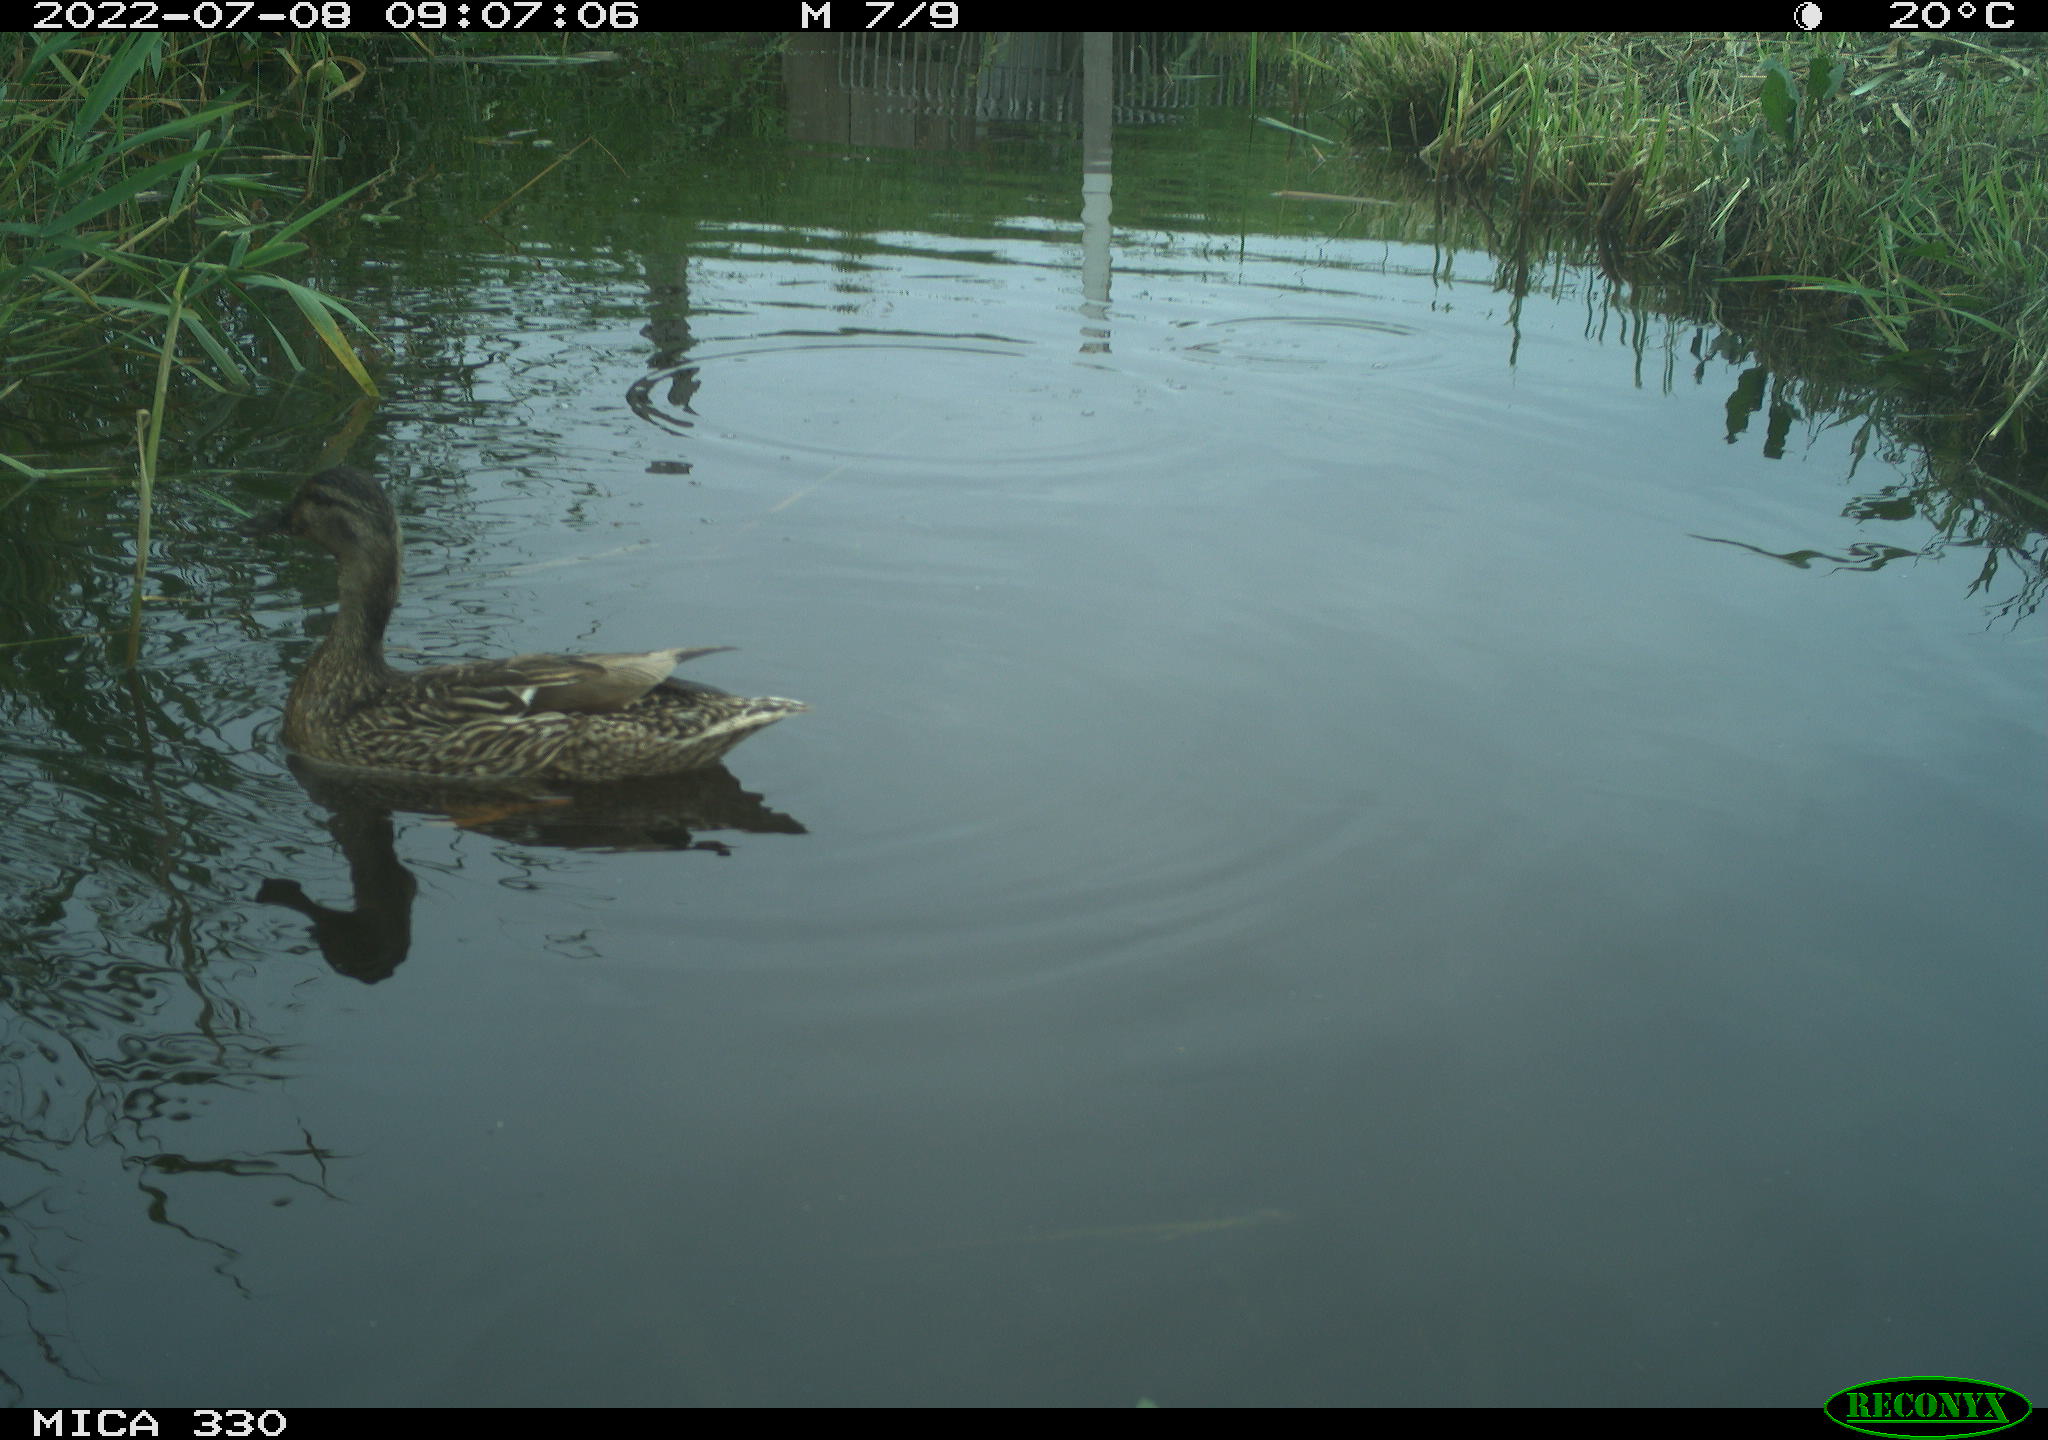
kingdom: Animalia
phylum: Chordata
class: Aves
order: Anseriformes
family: Anatidae
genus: Mareca
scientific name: Mareca strepera
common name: Gadwall
